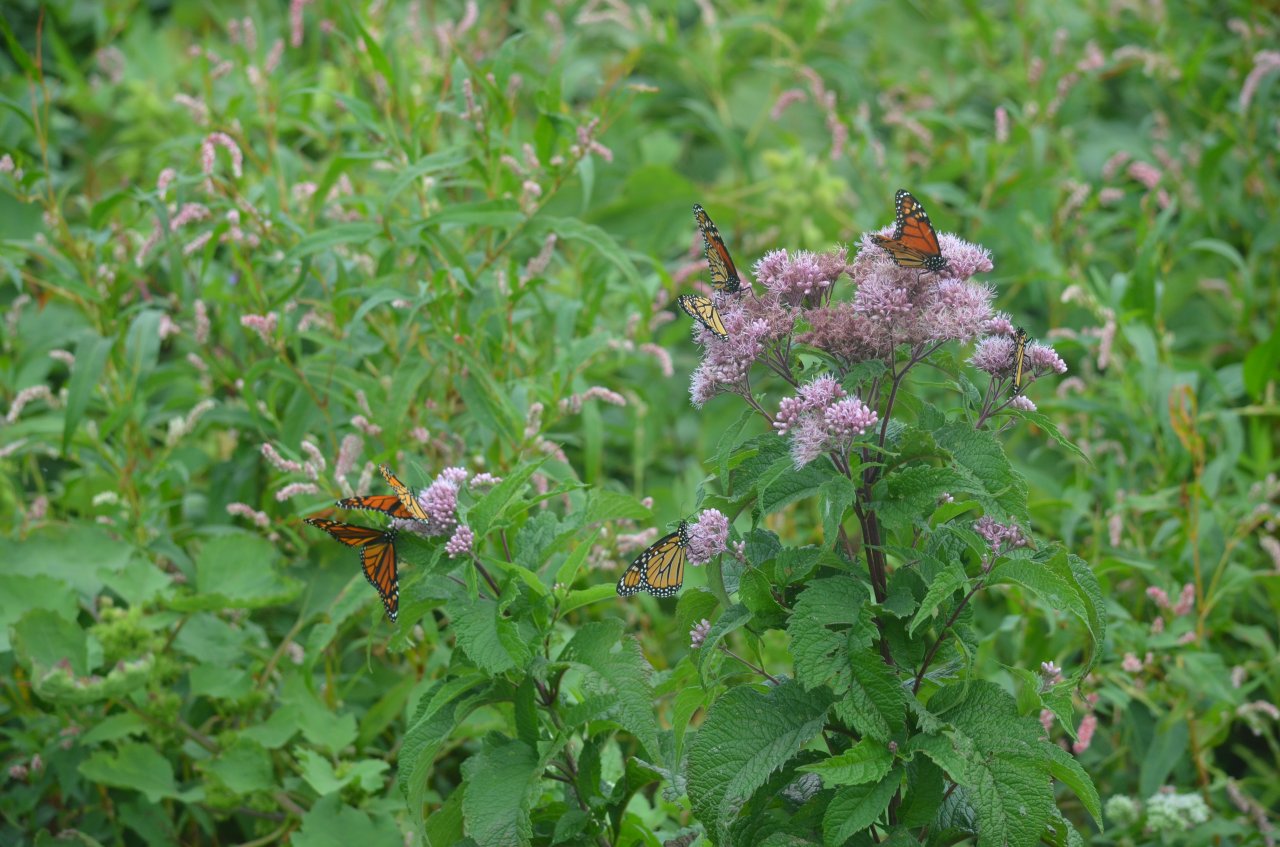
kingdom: Animalia
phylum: Arthropoda
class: Insecta
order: Lepidoptera
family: Nymphalidae
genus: Danaus
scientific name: Danaus plexippus
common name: Monarch
